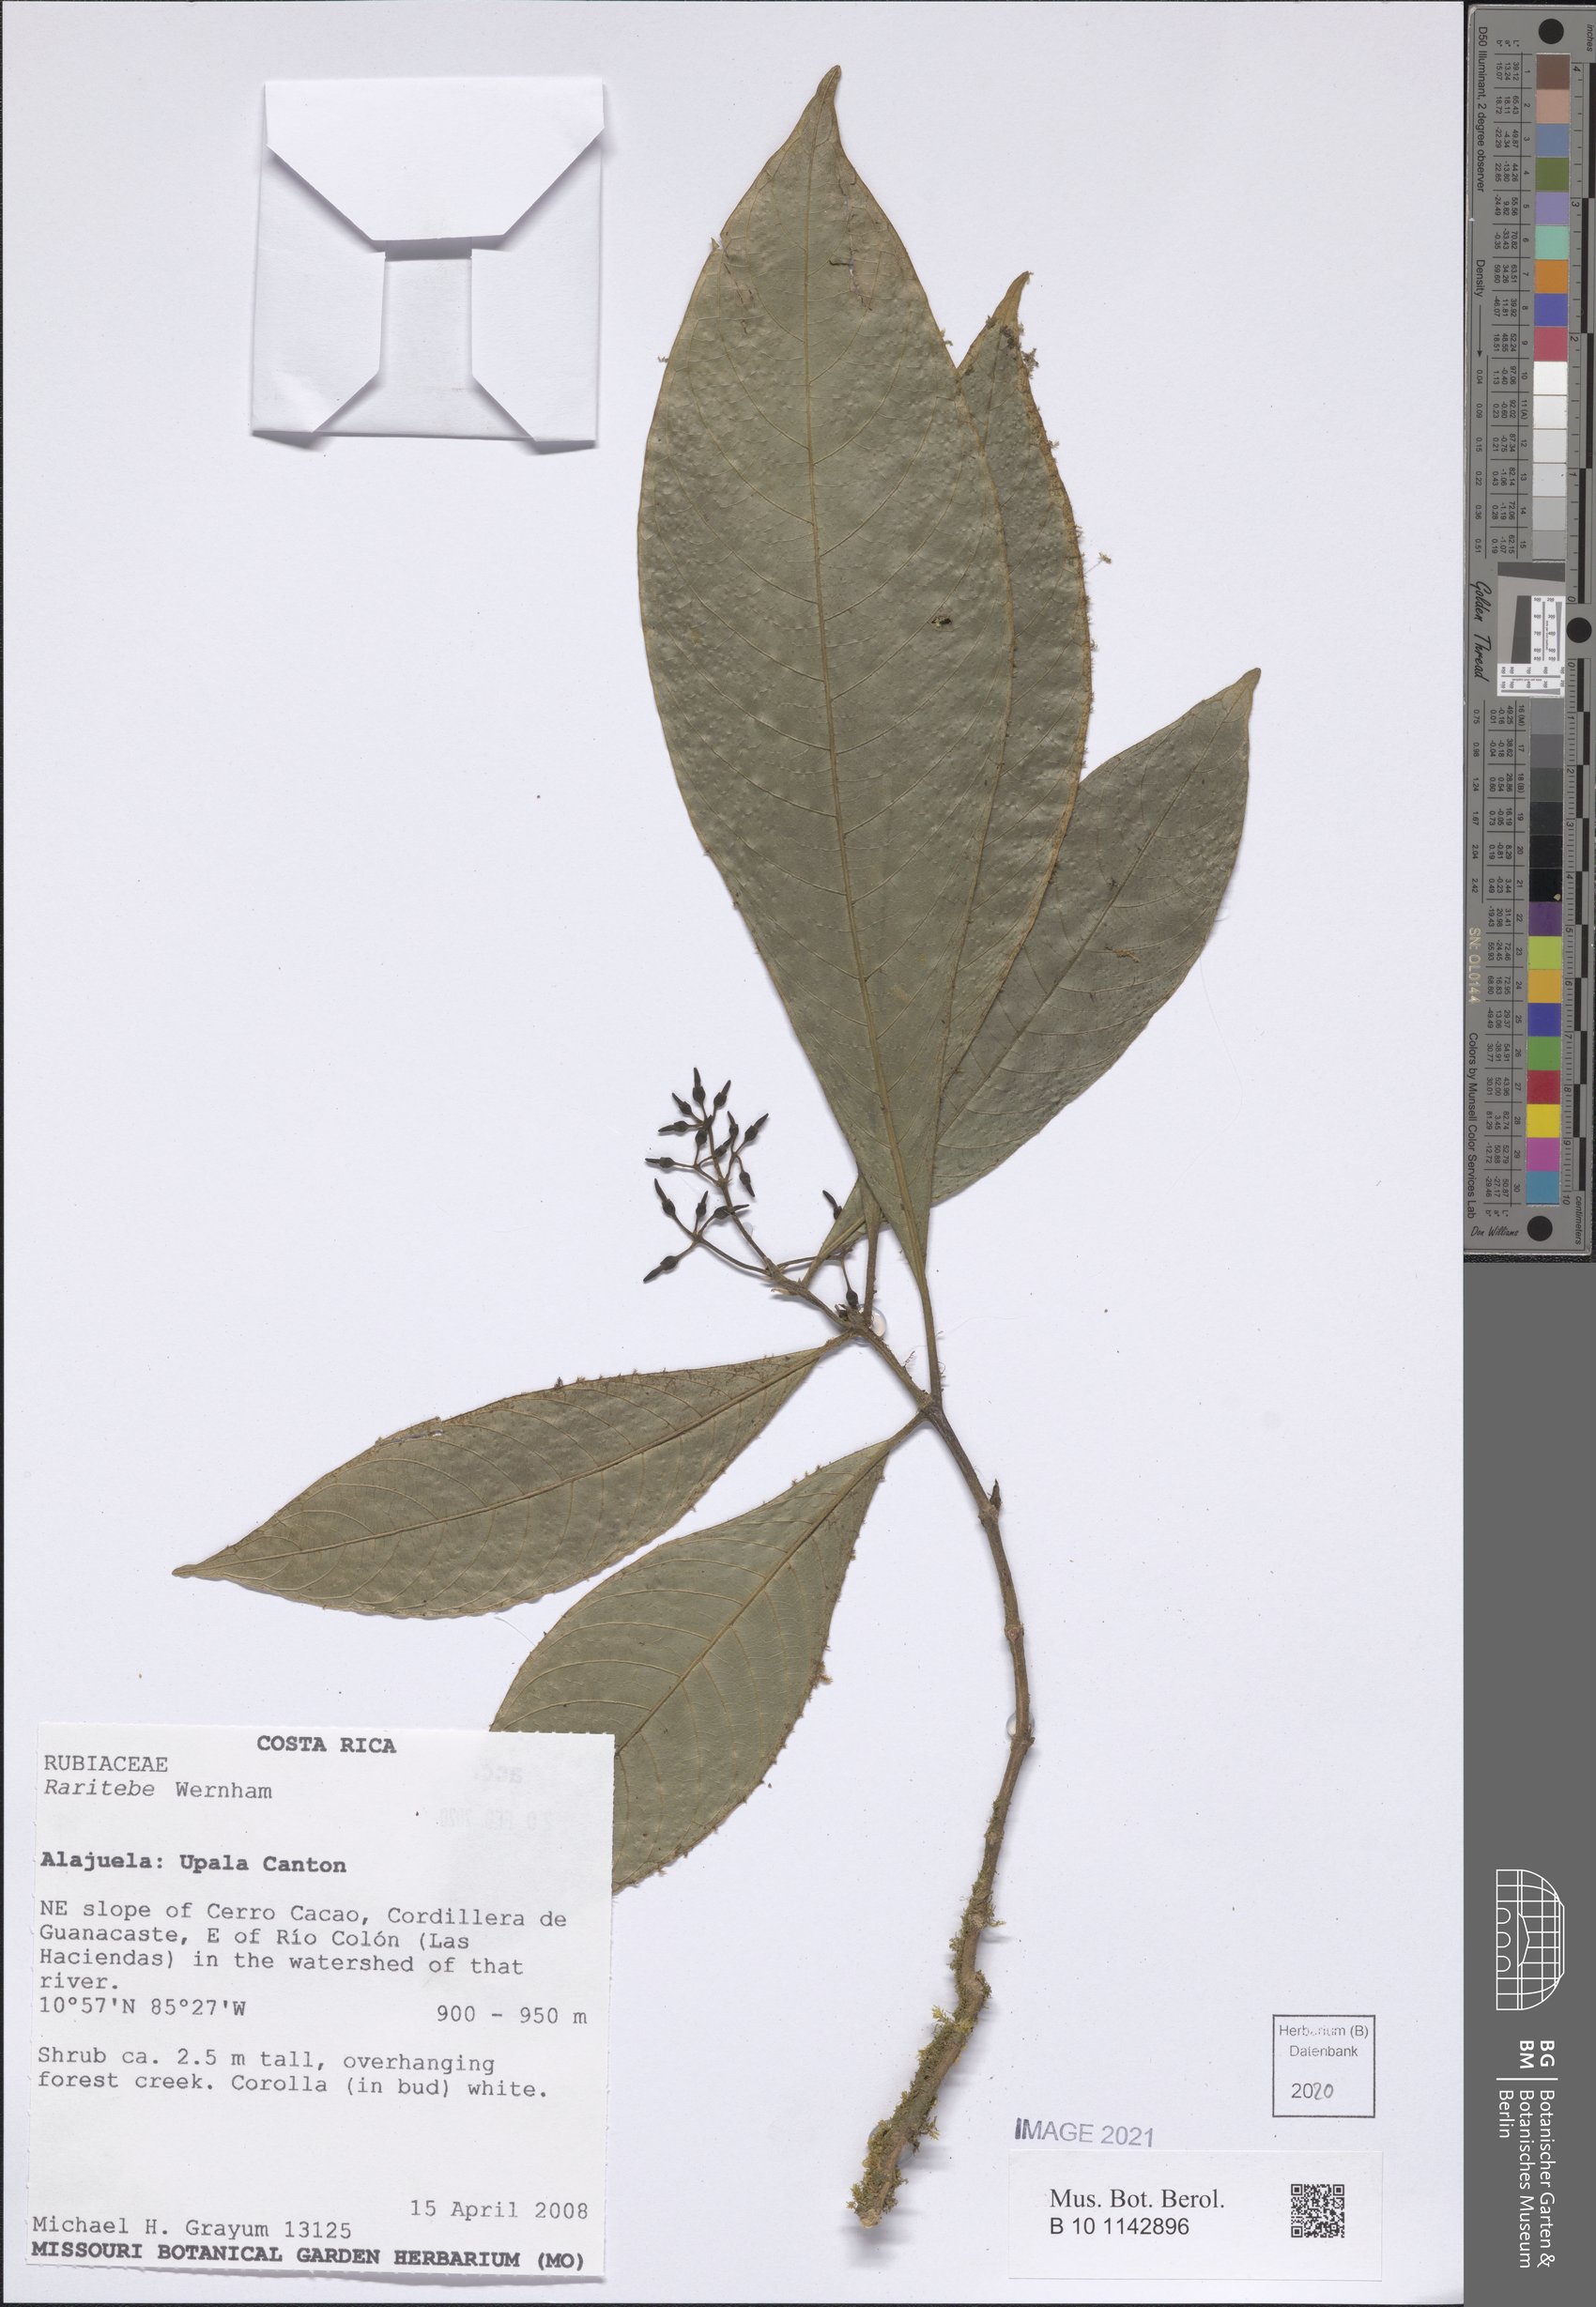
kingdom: Plantae
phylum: Tracheophyta
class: Magnoliopsida
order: Gentianales
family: Rubiaceae
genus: Raritebe
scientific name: Raritebe
